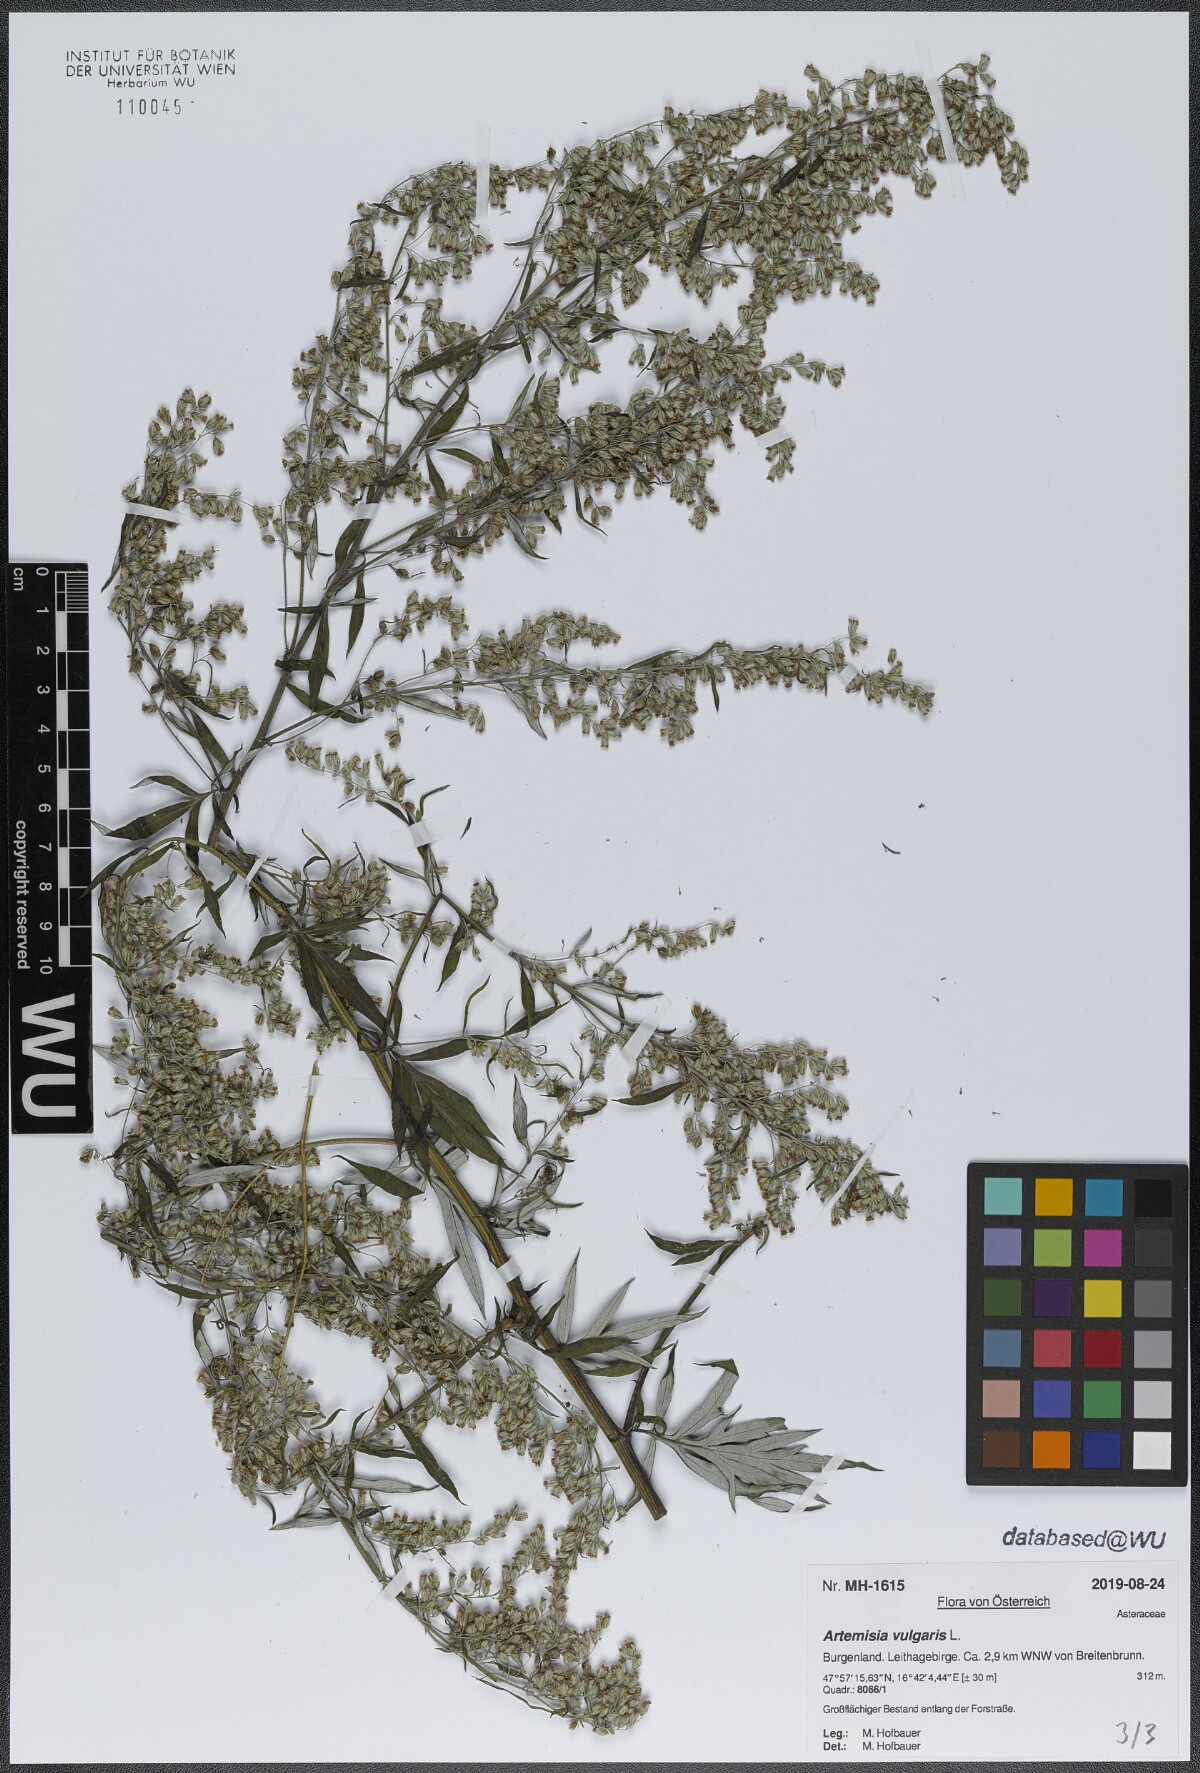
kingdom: Plantae
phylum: Tracheophyta
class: Magnoliopsida
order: Asterales
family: Asteraceae
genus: Artemisia
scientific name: Artemisia vulgaris
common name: Mugwort
